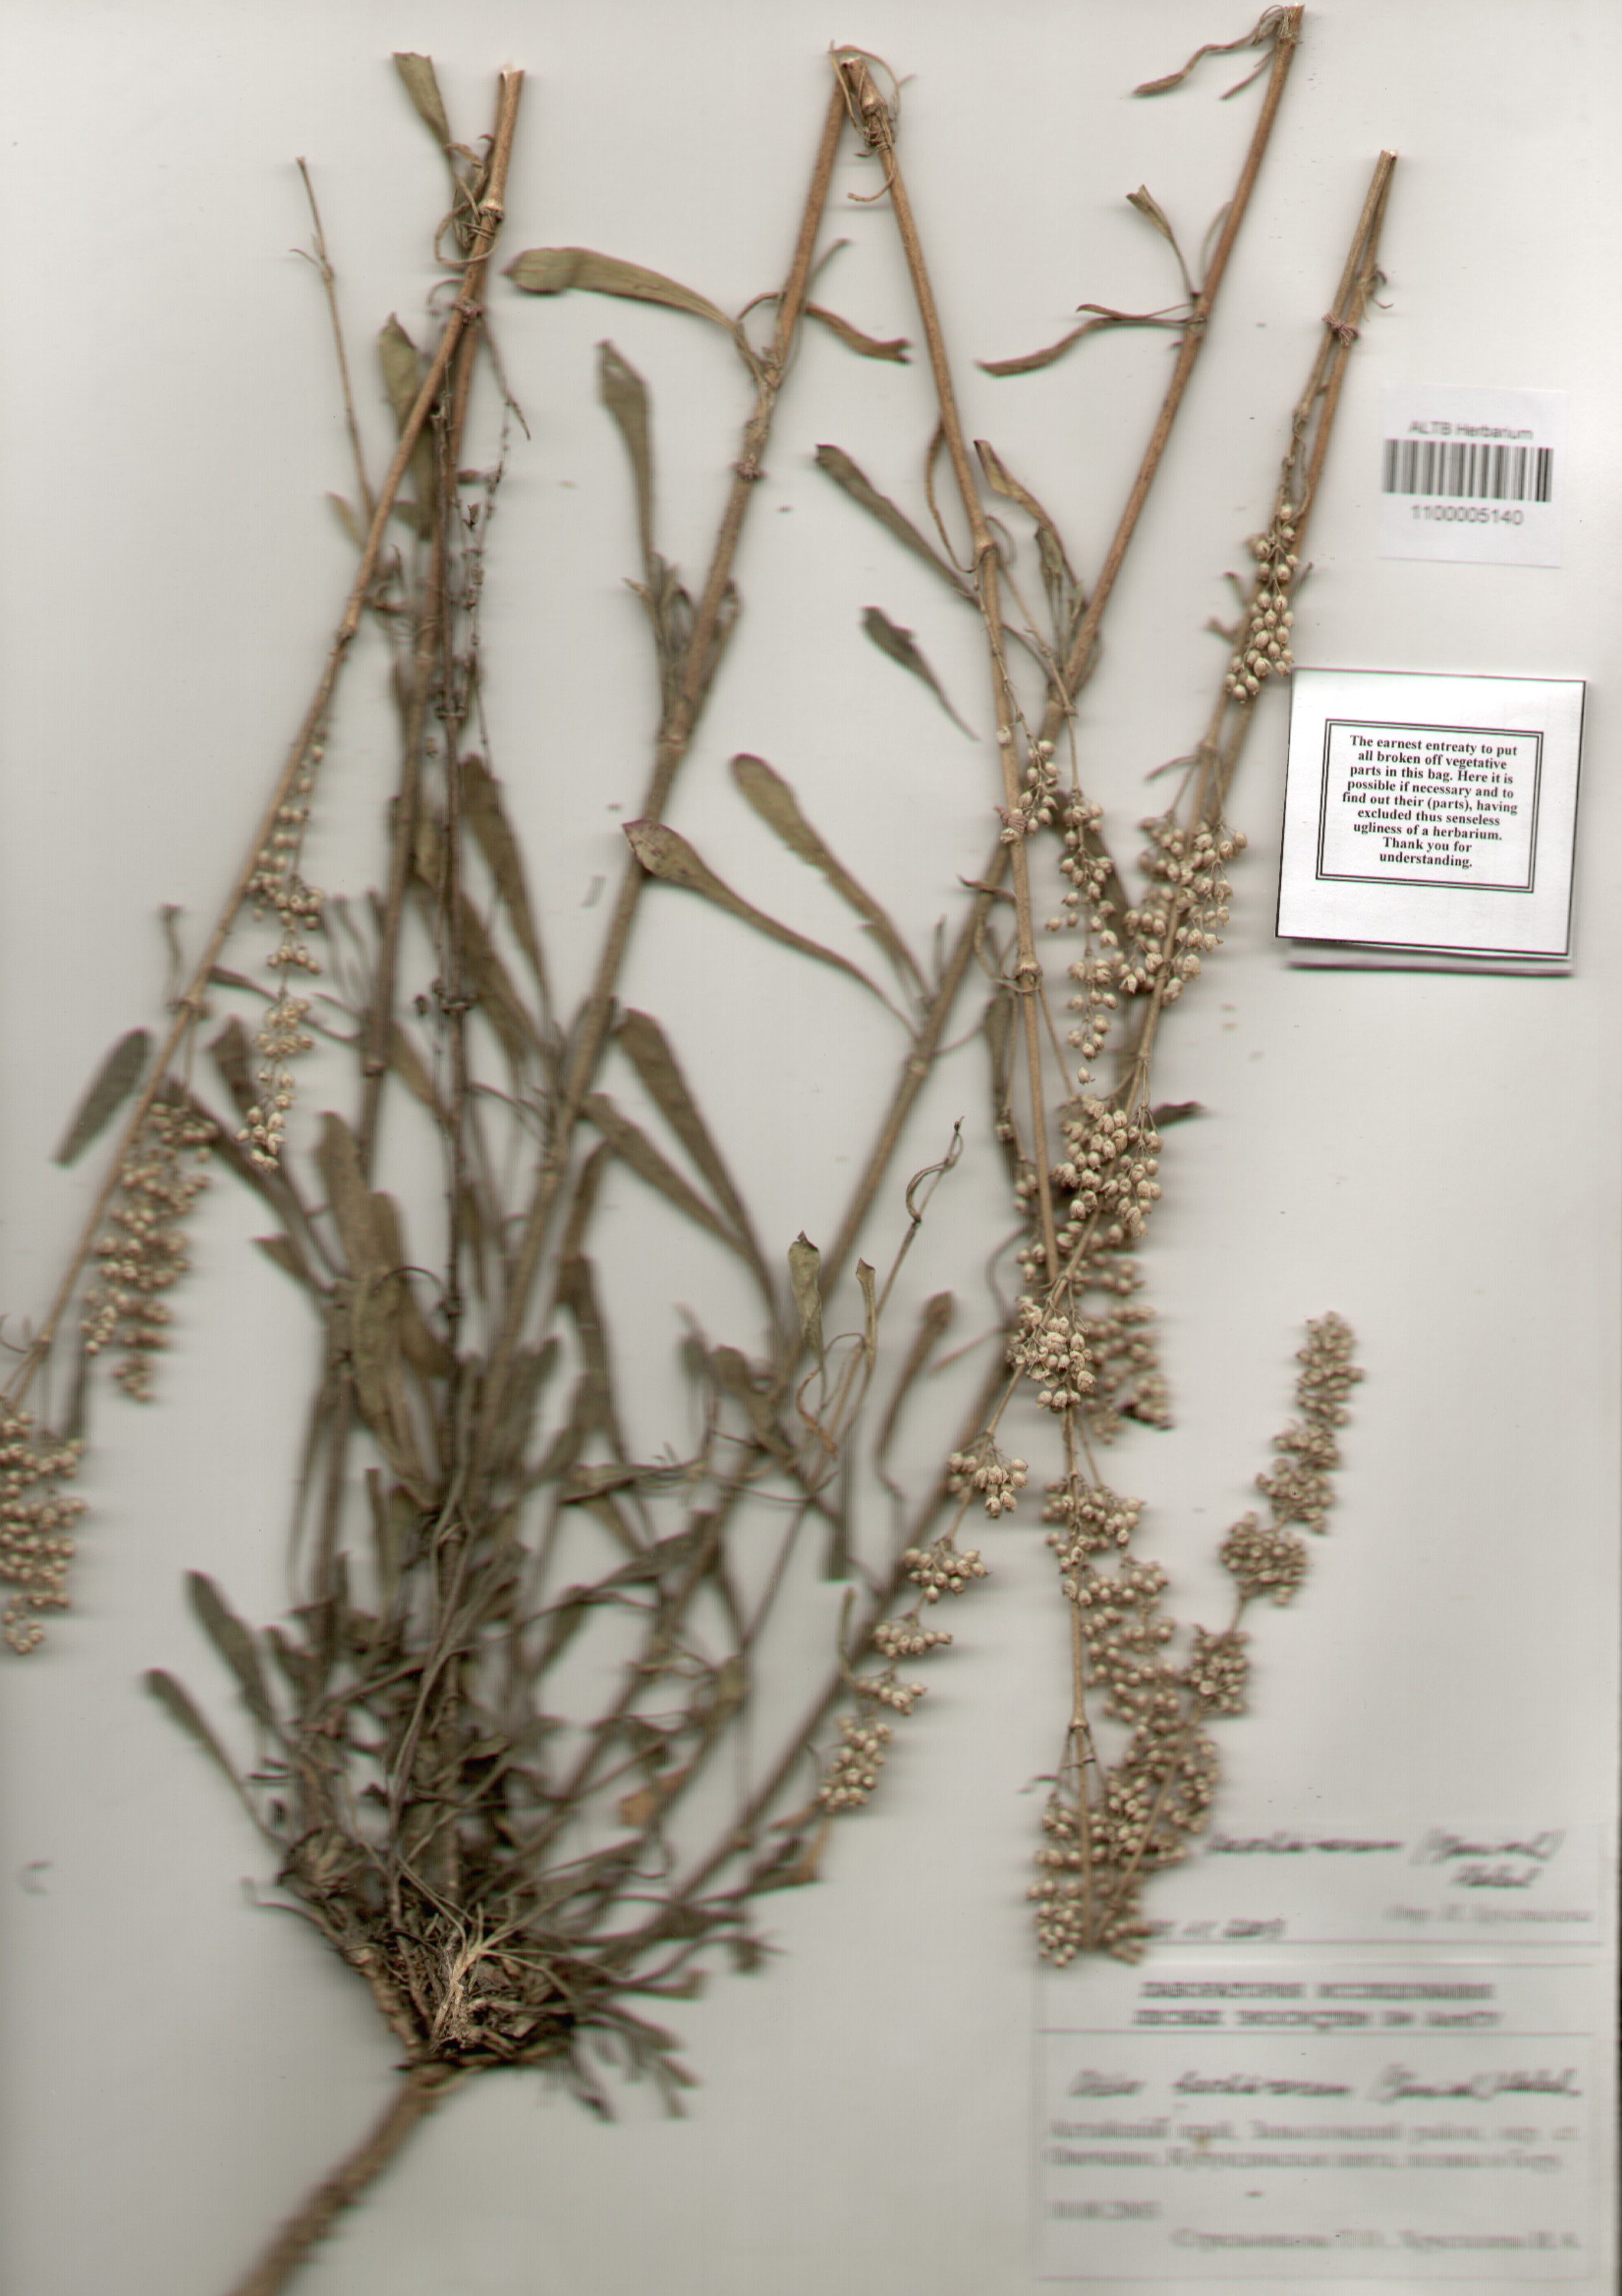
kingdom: Plantae
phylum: Tracheophyta
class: Magnoliopsida
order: Caryophyllales
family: Caryophyllaceae
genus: Silene
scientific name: Silene baschkirorum
